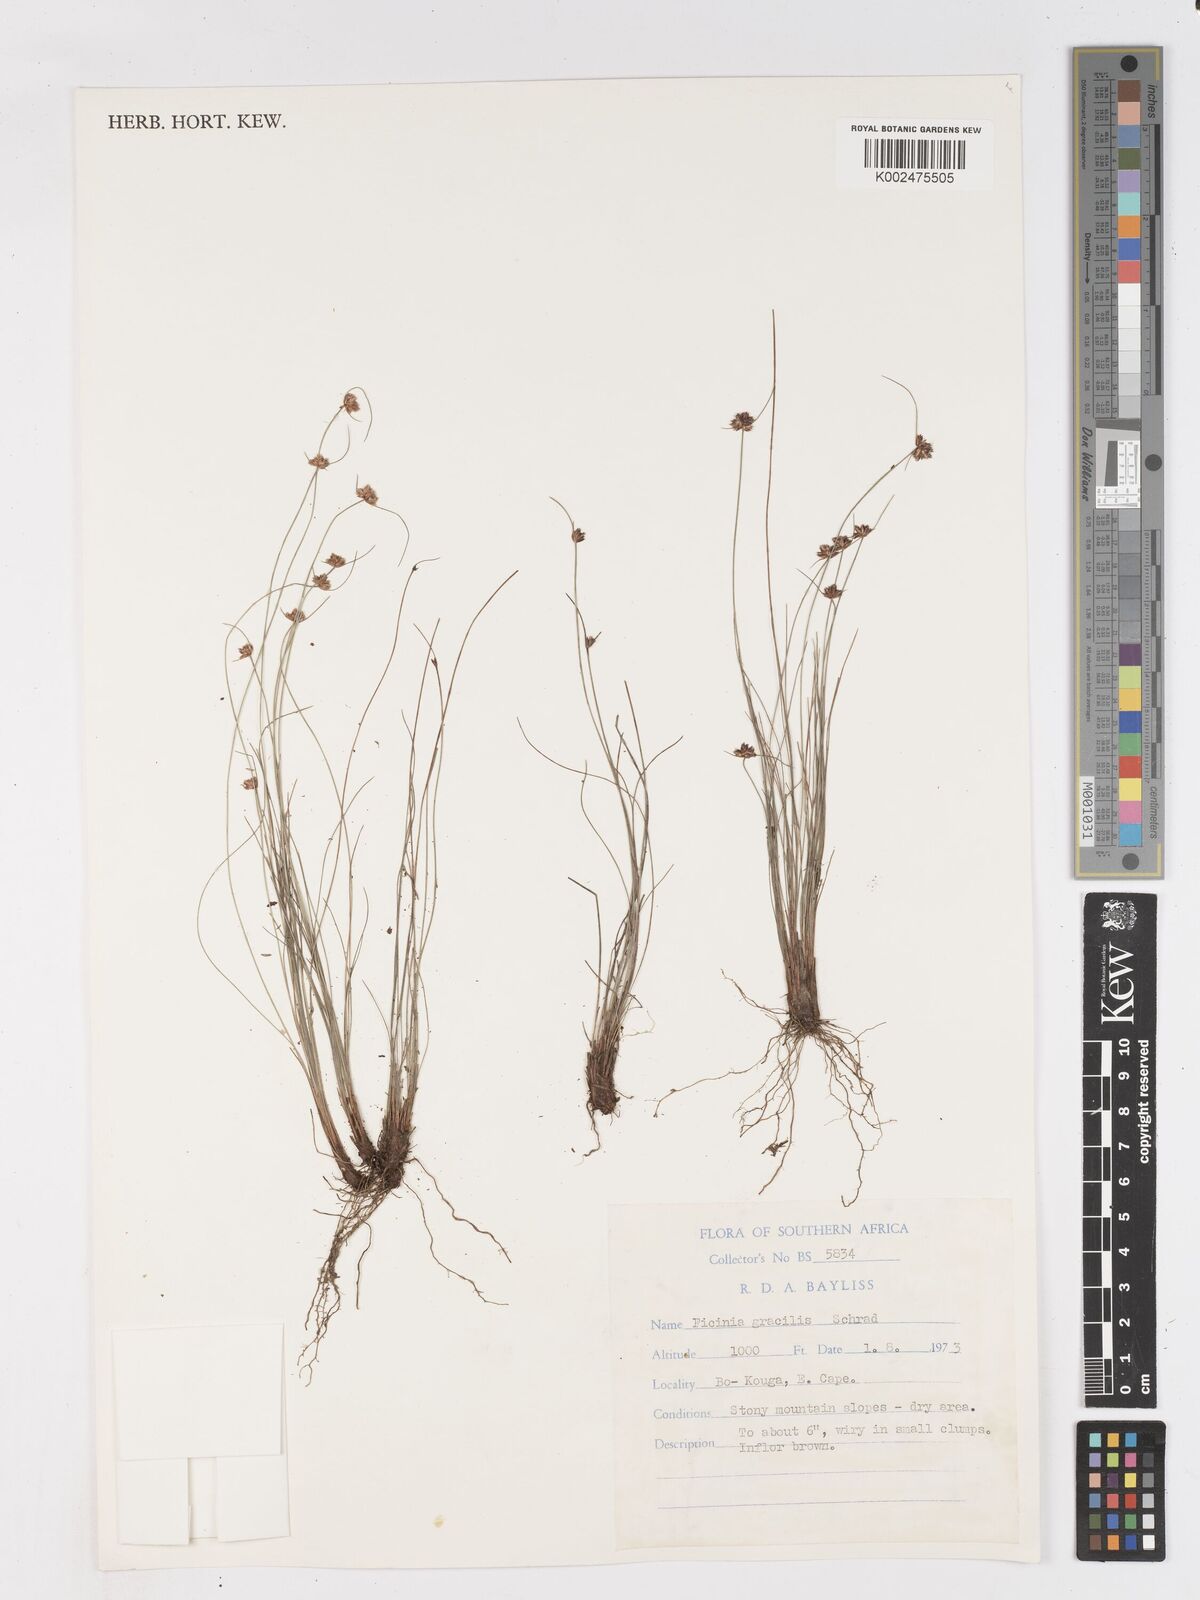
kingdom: Plantae
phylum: Tracheophyta
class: Liliopsida
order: Poales
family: Cyperaceae
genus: Ficinia
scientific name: Ficinia gracilis
